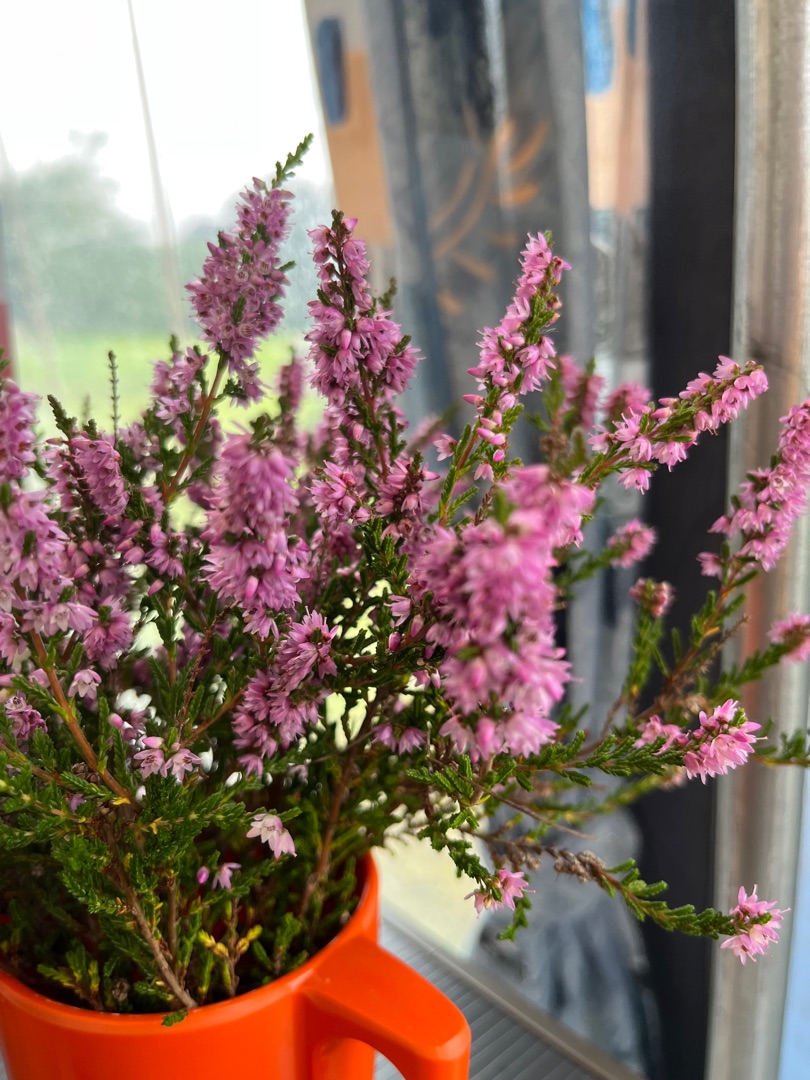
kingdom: Plantae
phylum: Tracheophyta
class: Magnoliopsida
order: Ericales
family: Ericaceae
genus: Calluna
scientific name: Calluna vulgaris
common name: Hedelyng
